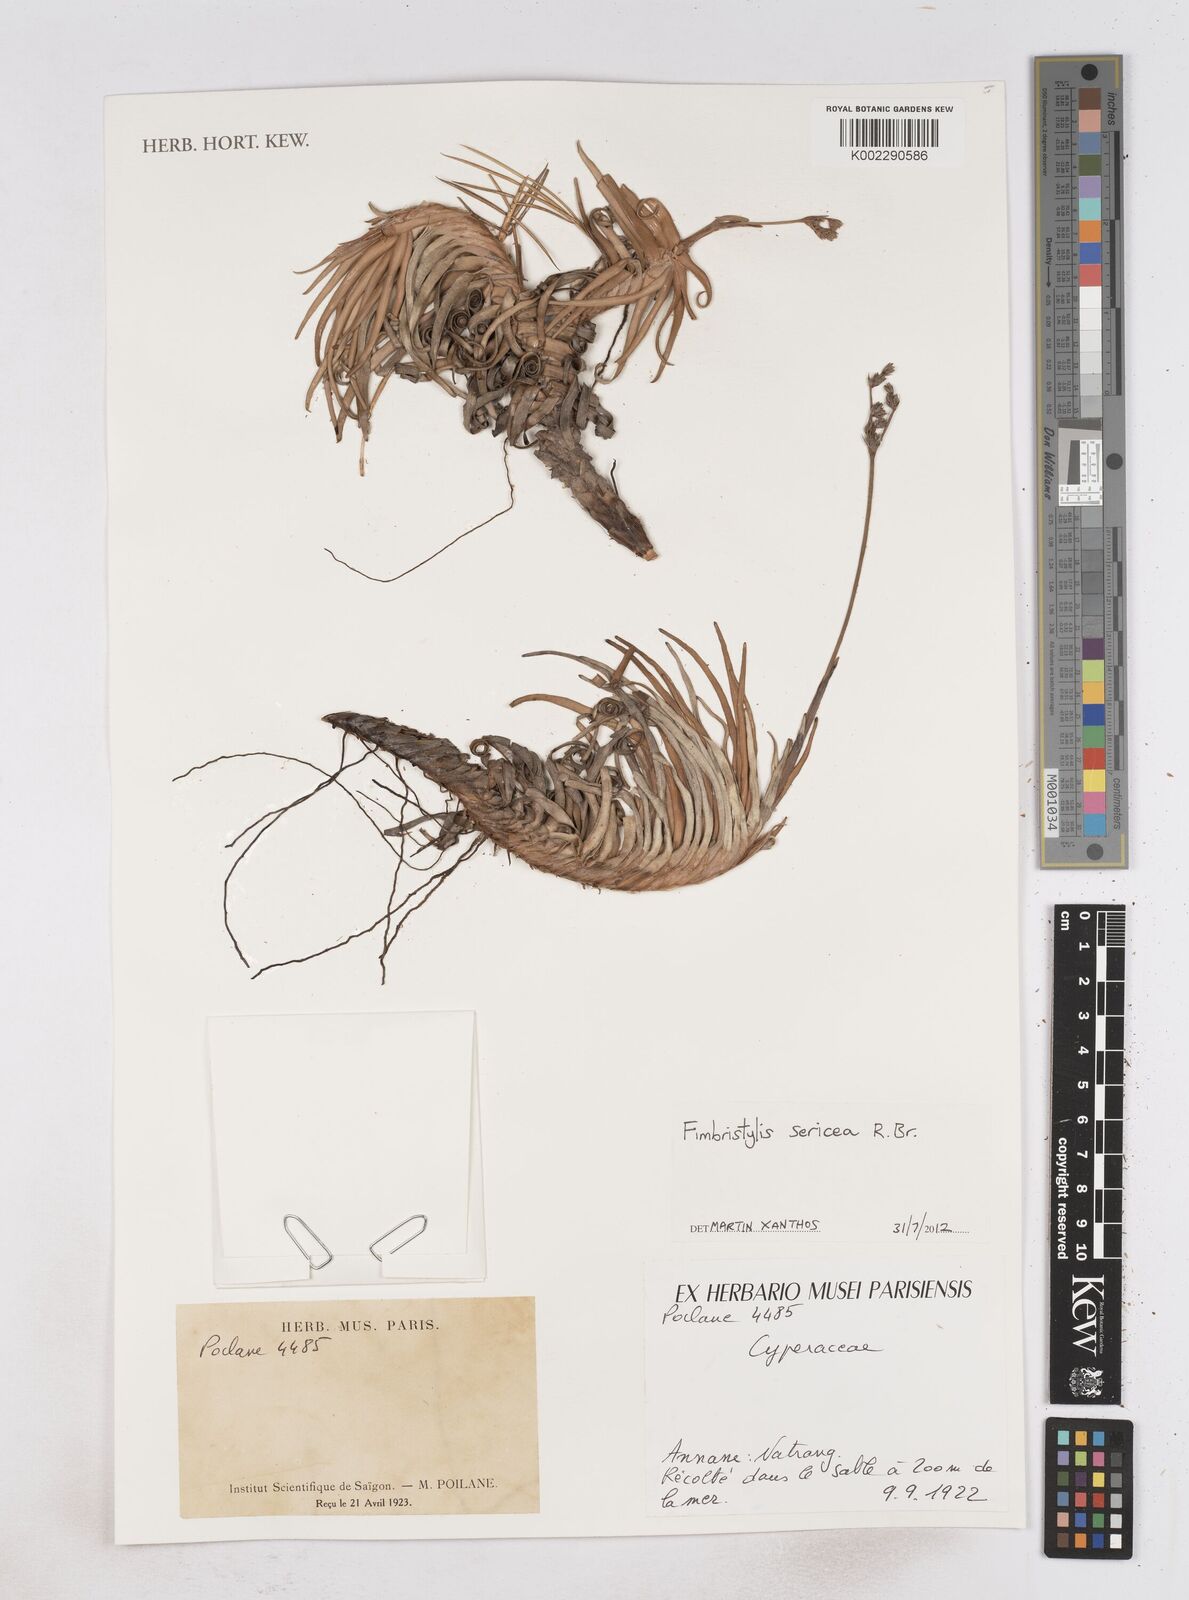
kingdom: Plantae
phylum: Tracheophyta
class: Liliopsida
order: Poales
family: Cyperaceae
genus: Fimbristylis
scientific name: Fimbristylis sericea
